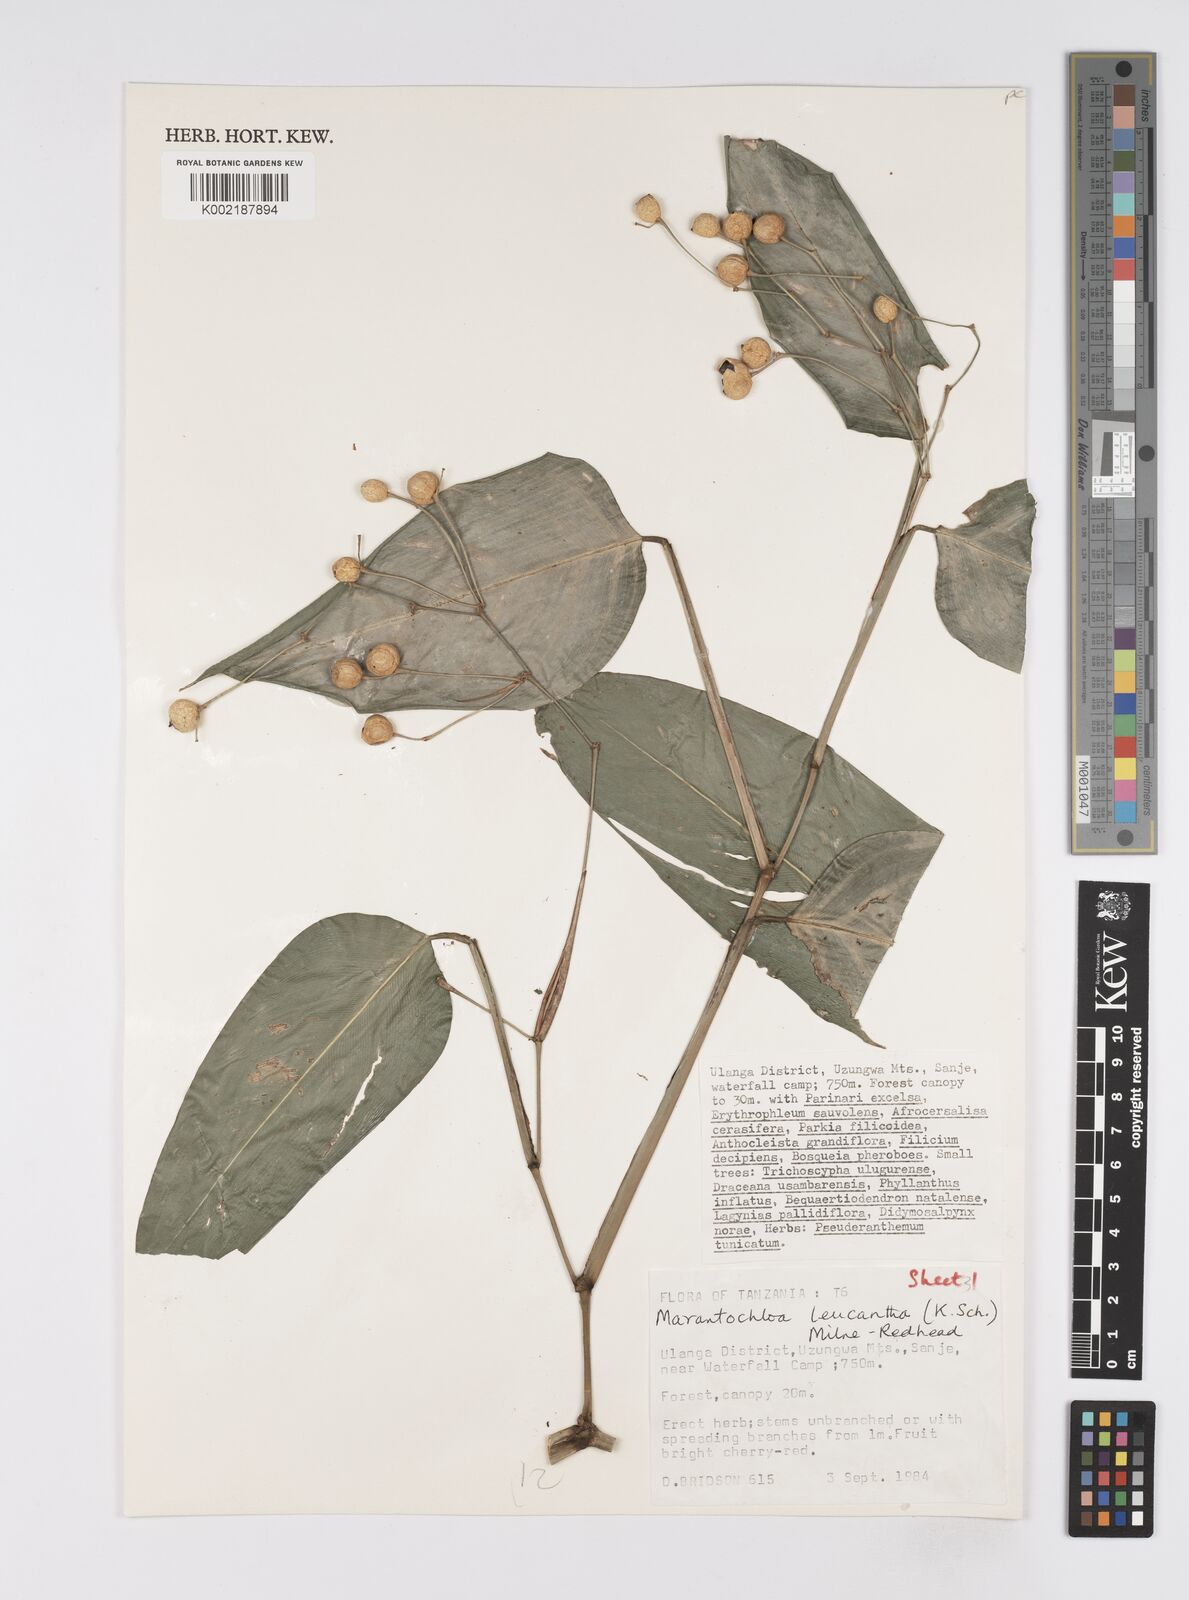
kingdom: Plantae
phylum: Tracheophyta
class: Liliopsida
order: Zingiberales
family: Marantaceae
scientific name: Marantaceae
